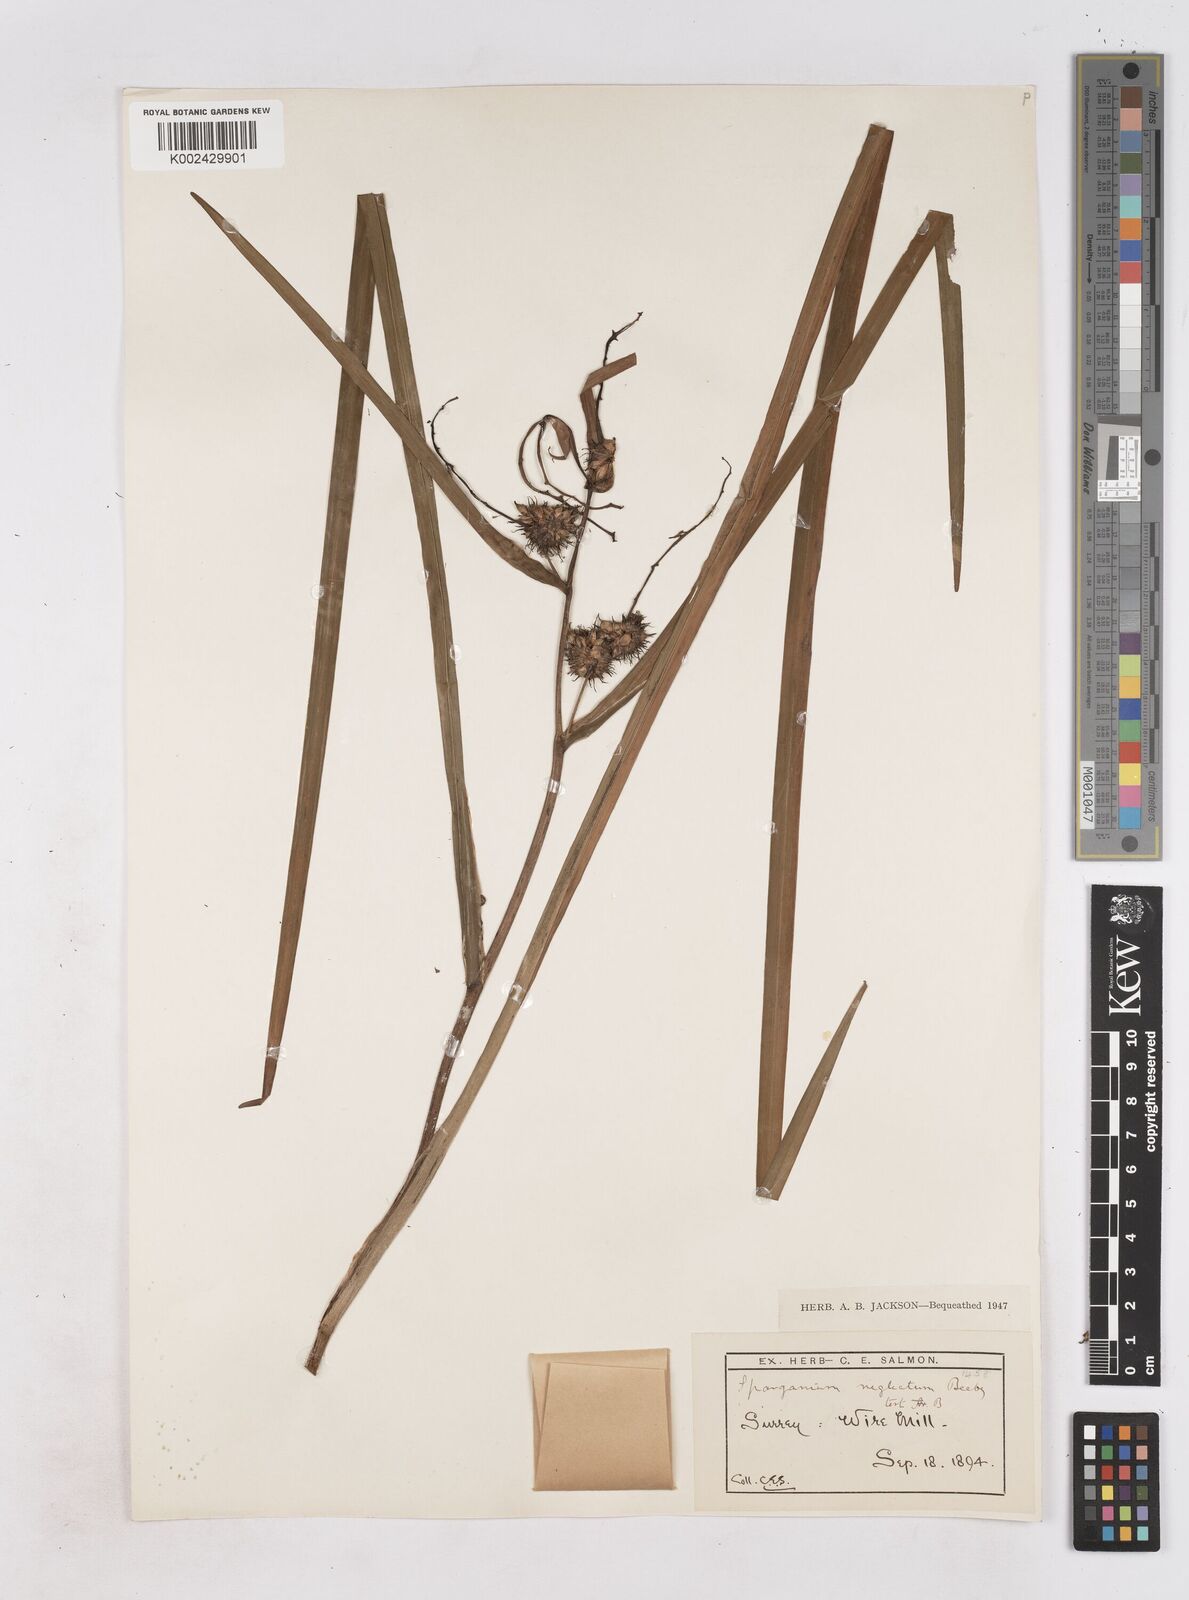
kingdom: Plantae
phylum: Tracheophyta
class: Liliopsida
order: Poales
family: Typhaceae
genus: Sparganium
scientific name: Sparganium erectum
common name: Branched bur-reed
